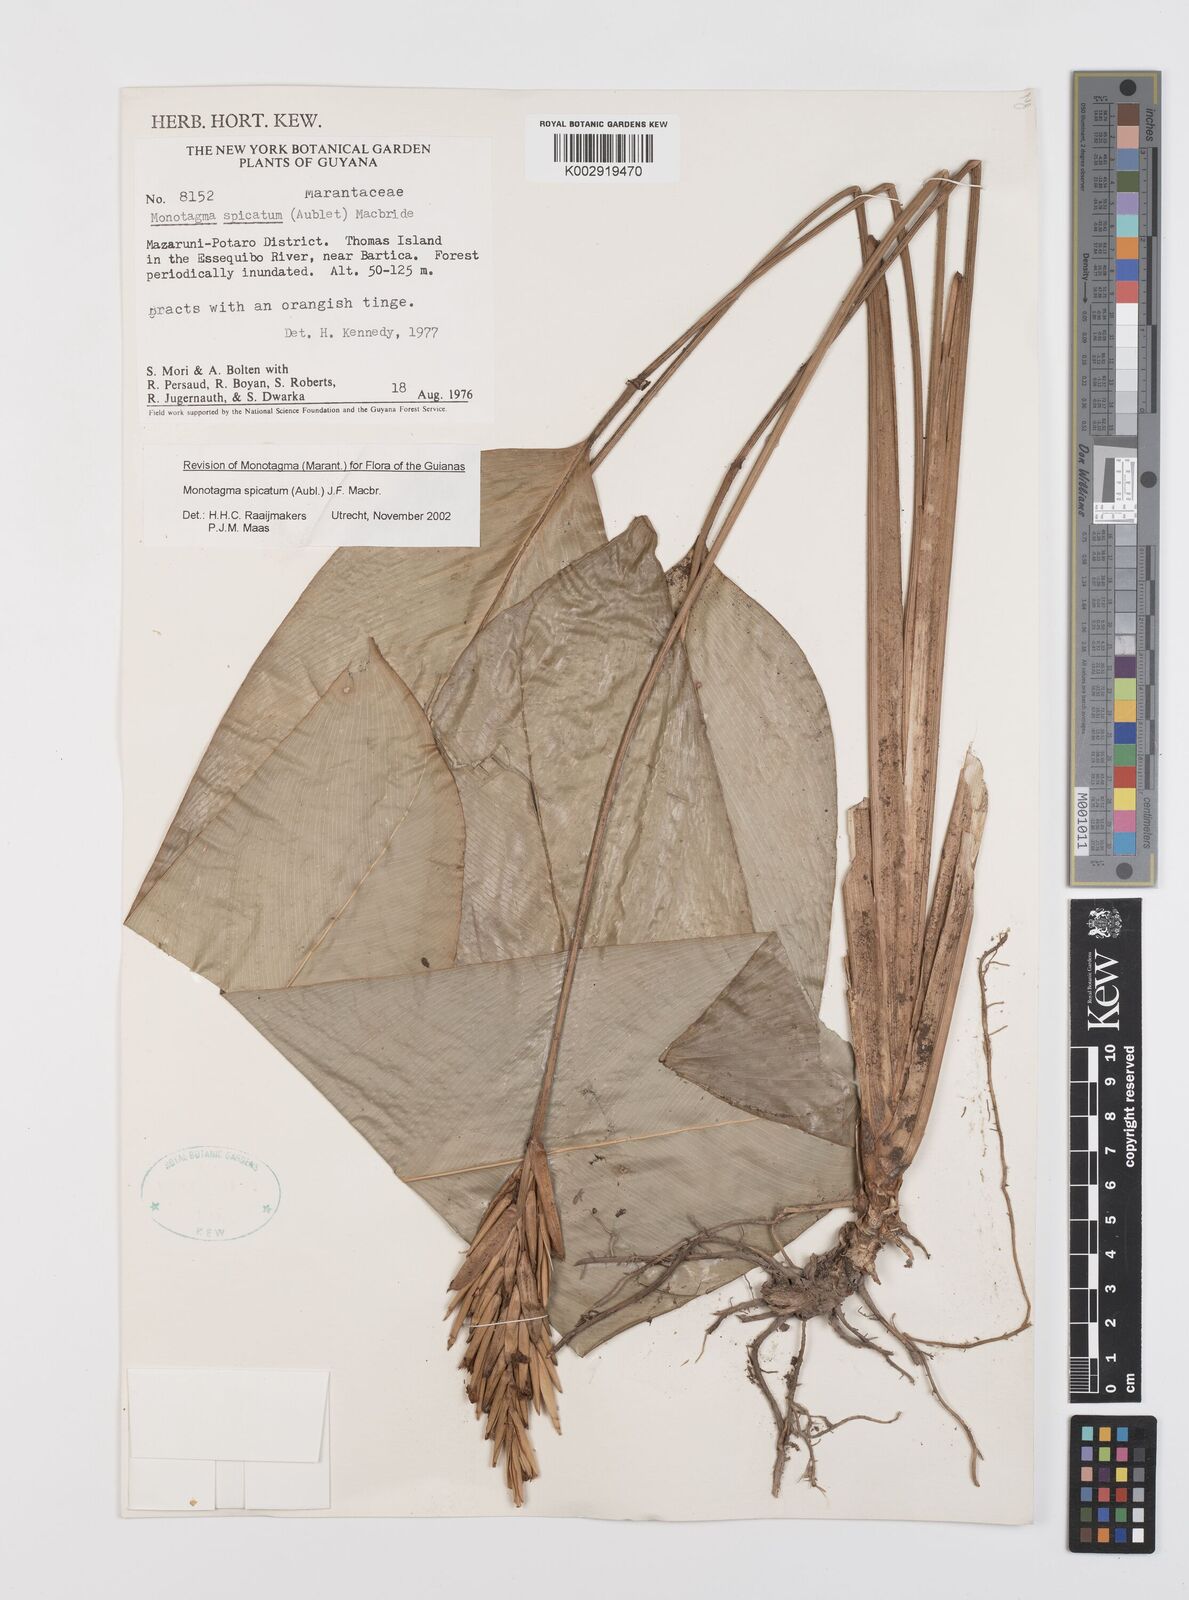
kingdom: Plantae
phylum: Tracheophyta
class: Liliopsida
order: Zingiberales
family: Marantaceae
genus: Monotagma
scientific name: Monotagma spicatum
